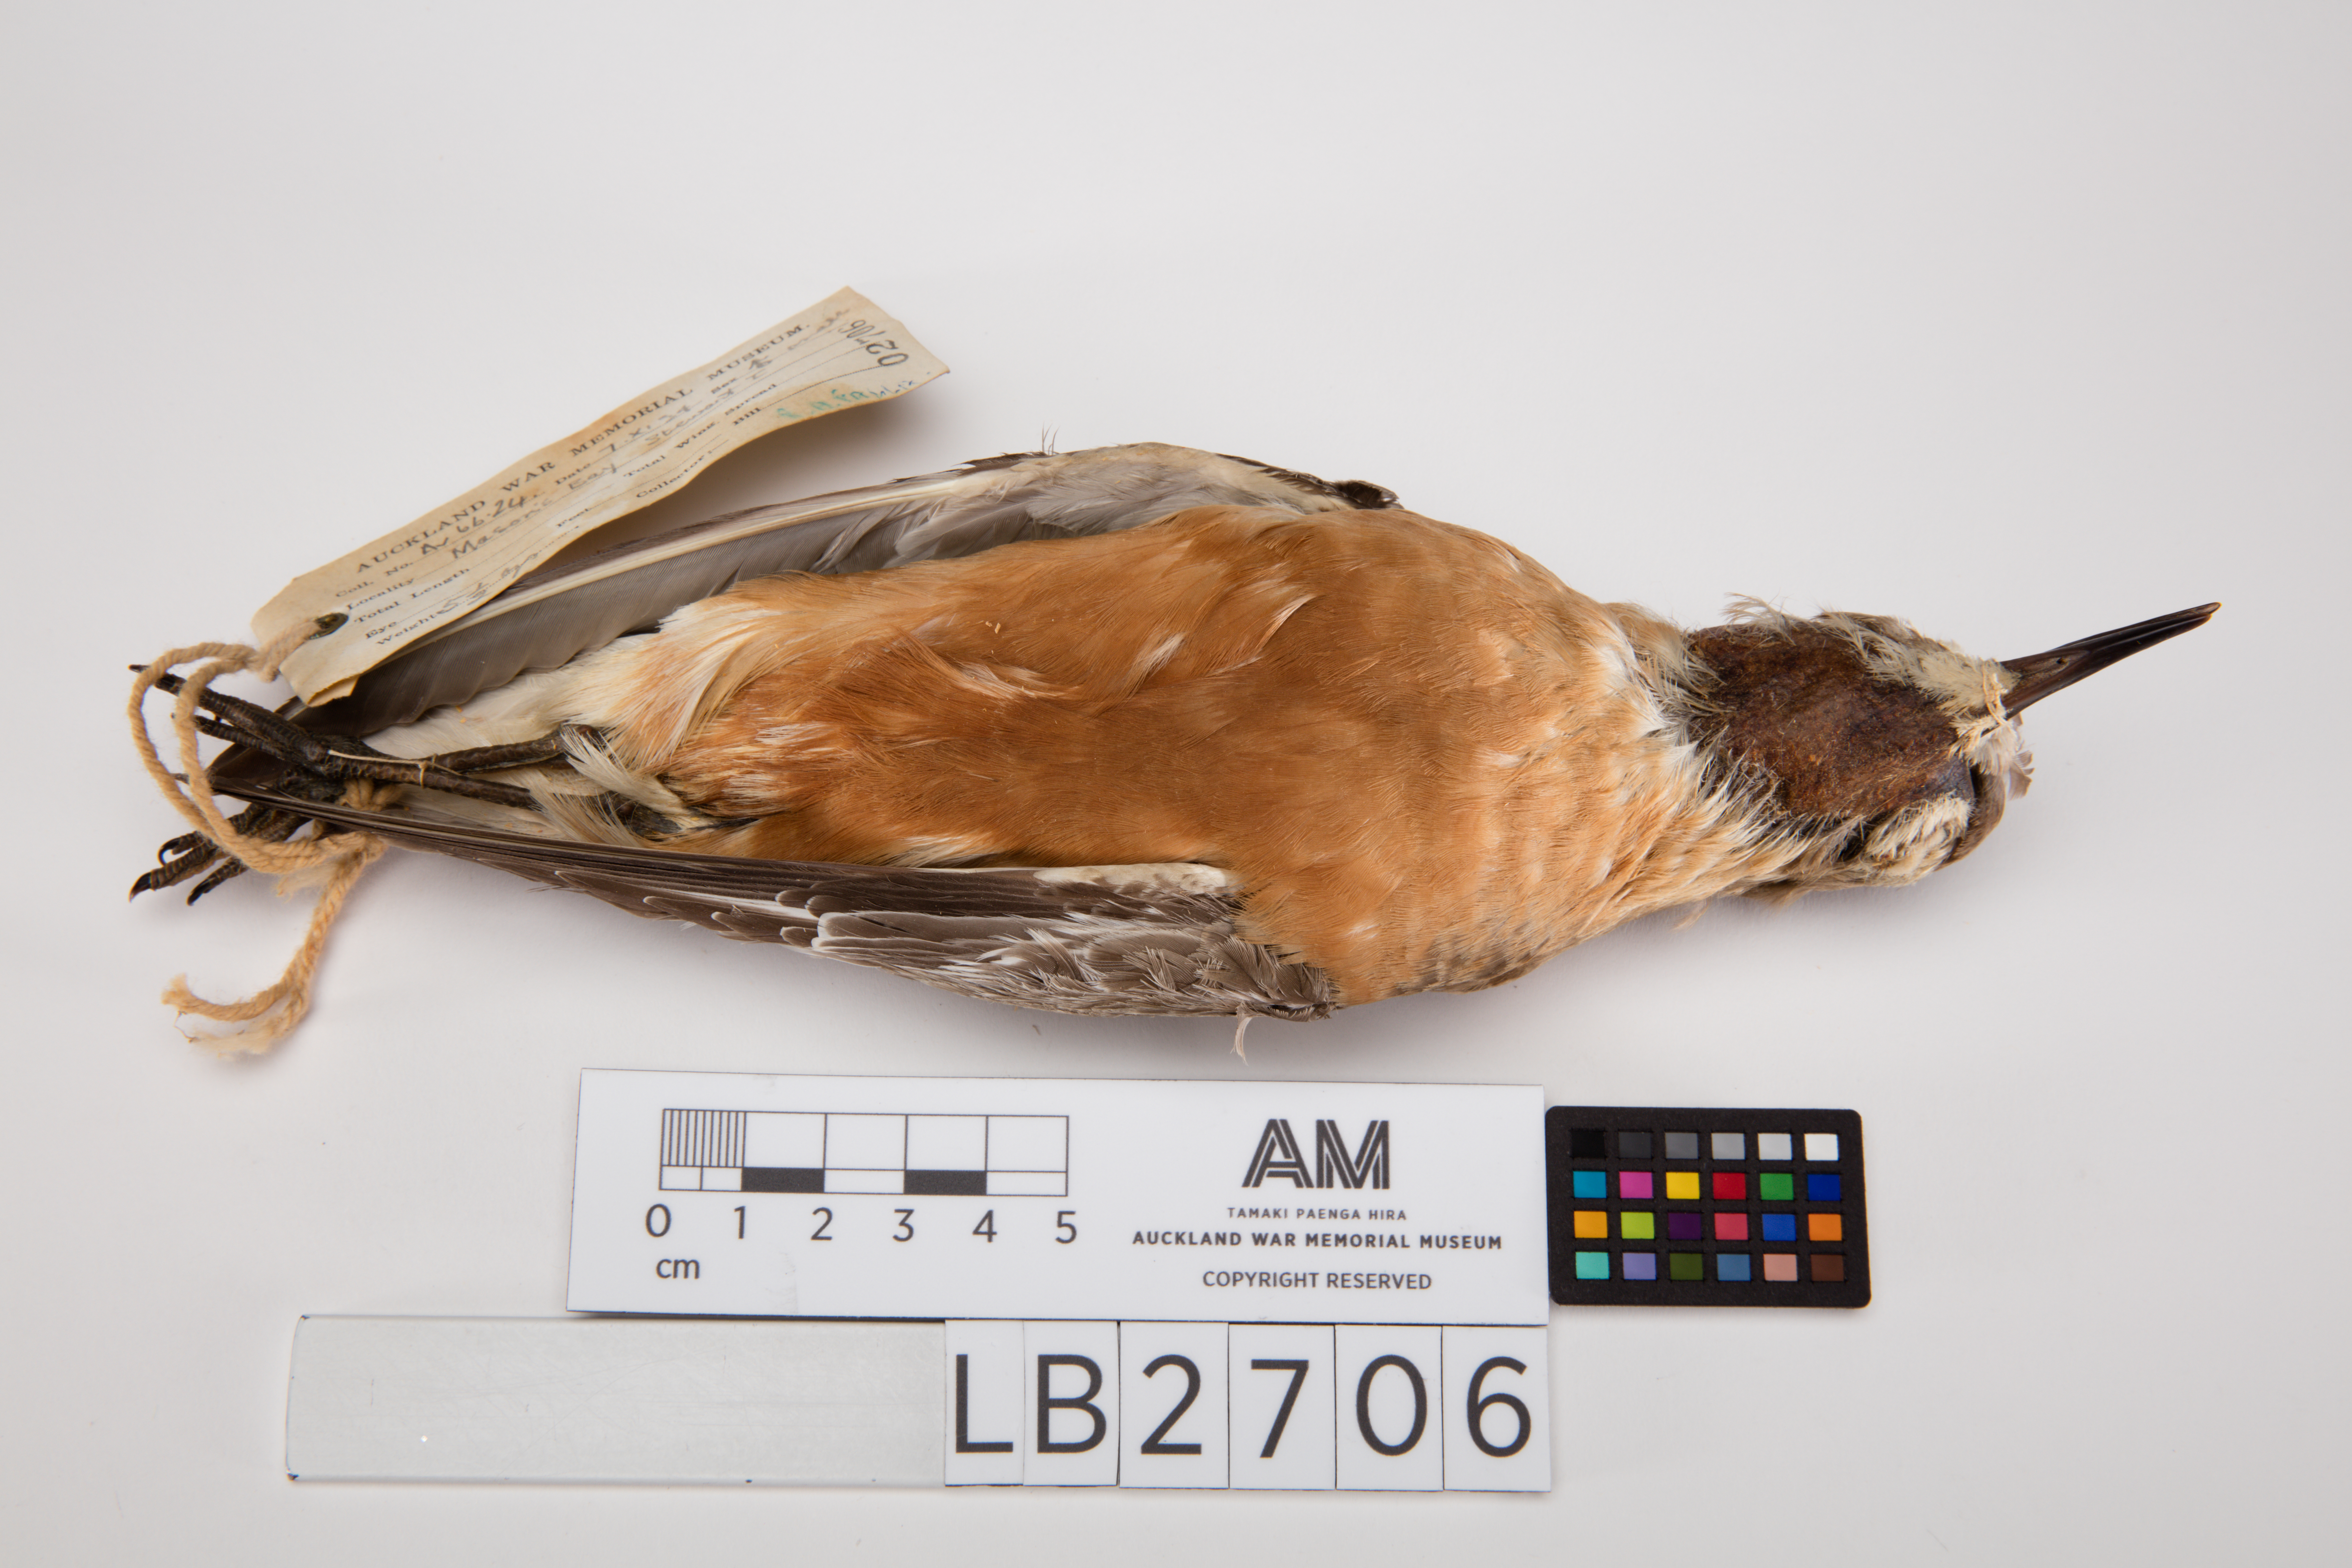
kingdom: Animalia
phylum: Chordata
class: Aves
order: Charadriiformes
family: Charadriidae
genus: Charadrius
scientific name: Charadrius obscurus
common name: New zealand plover
